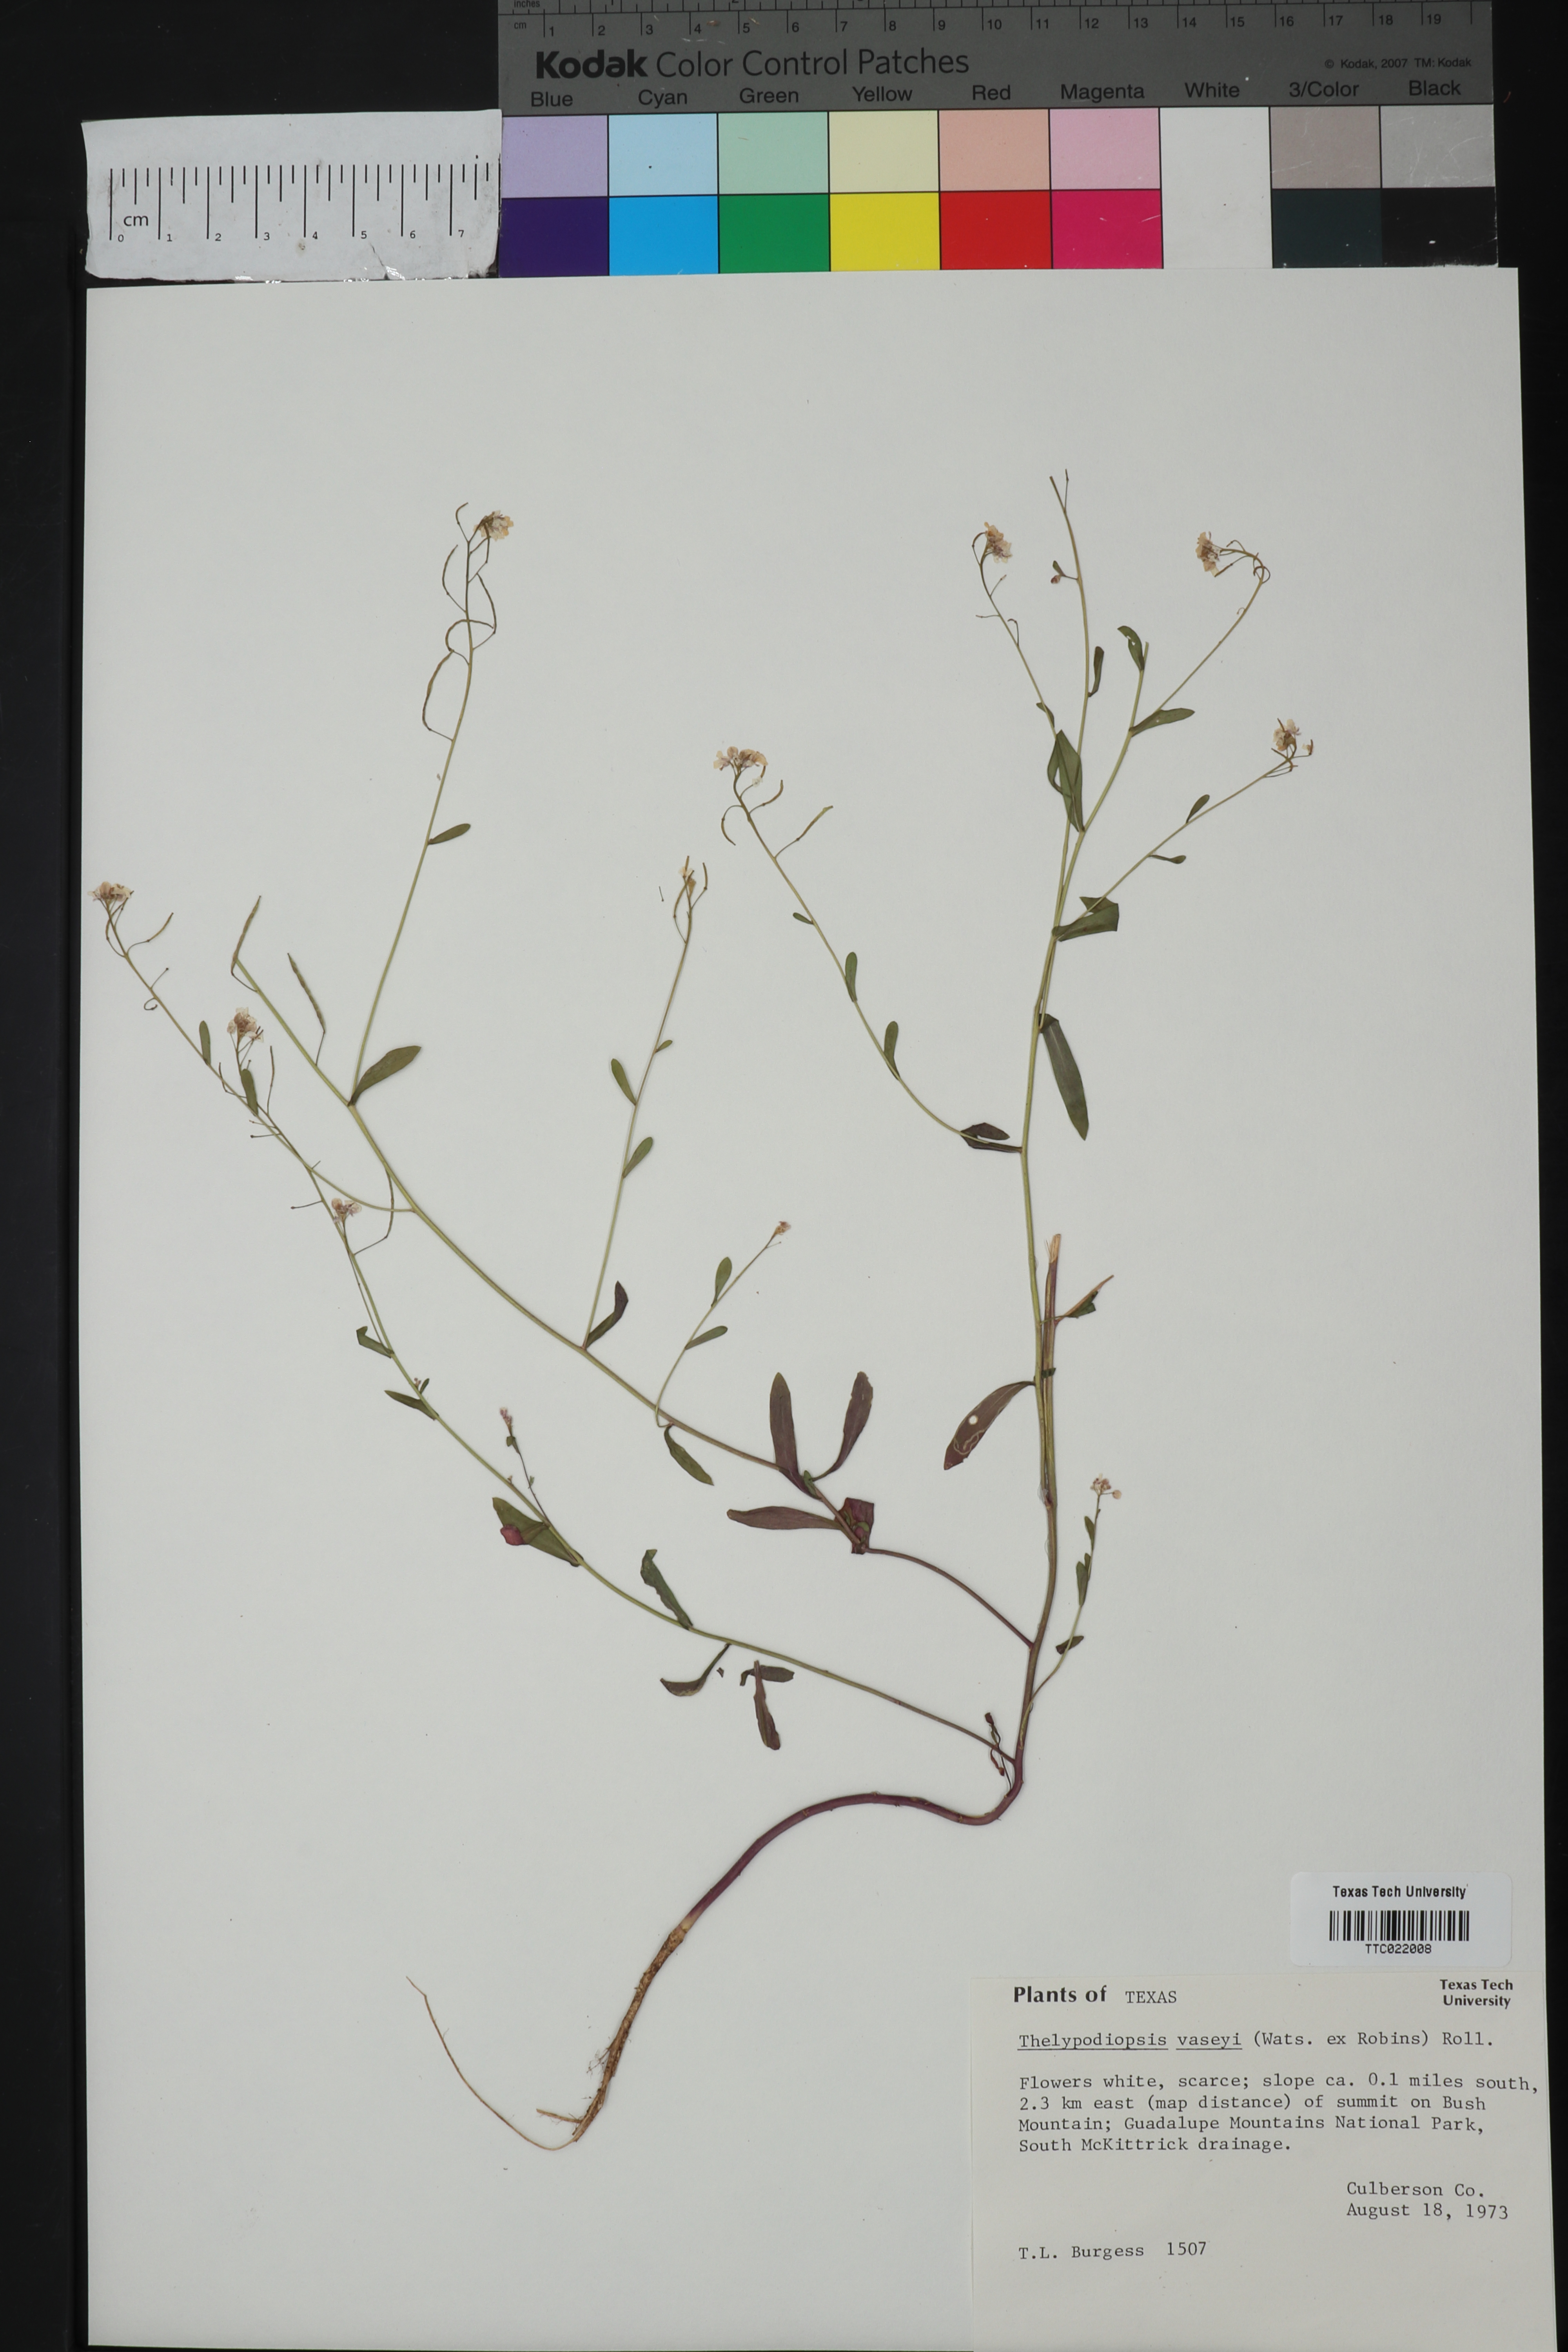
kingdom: Plantae
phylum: Tracheophyta
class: Magnoliopsida
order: Brassicales
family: Brassicaceae
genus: Mostacillastrum
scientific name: Mostacillastrum subauriculatum
